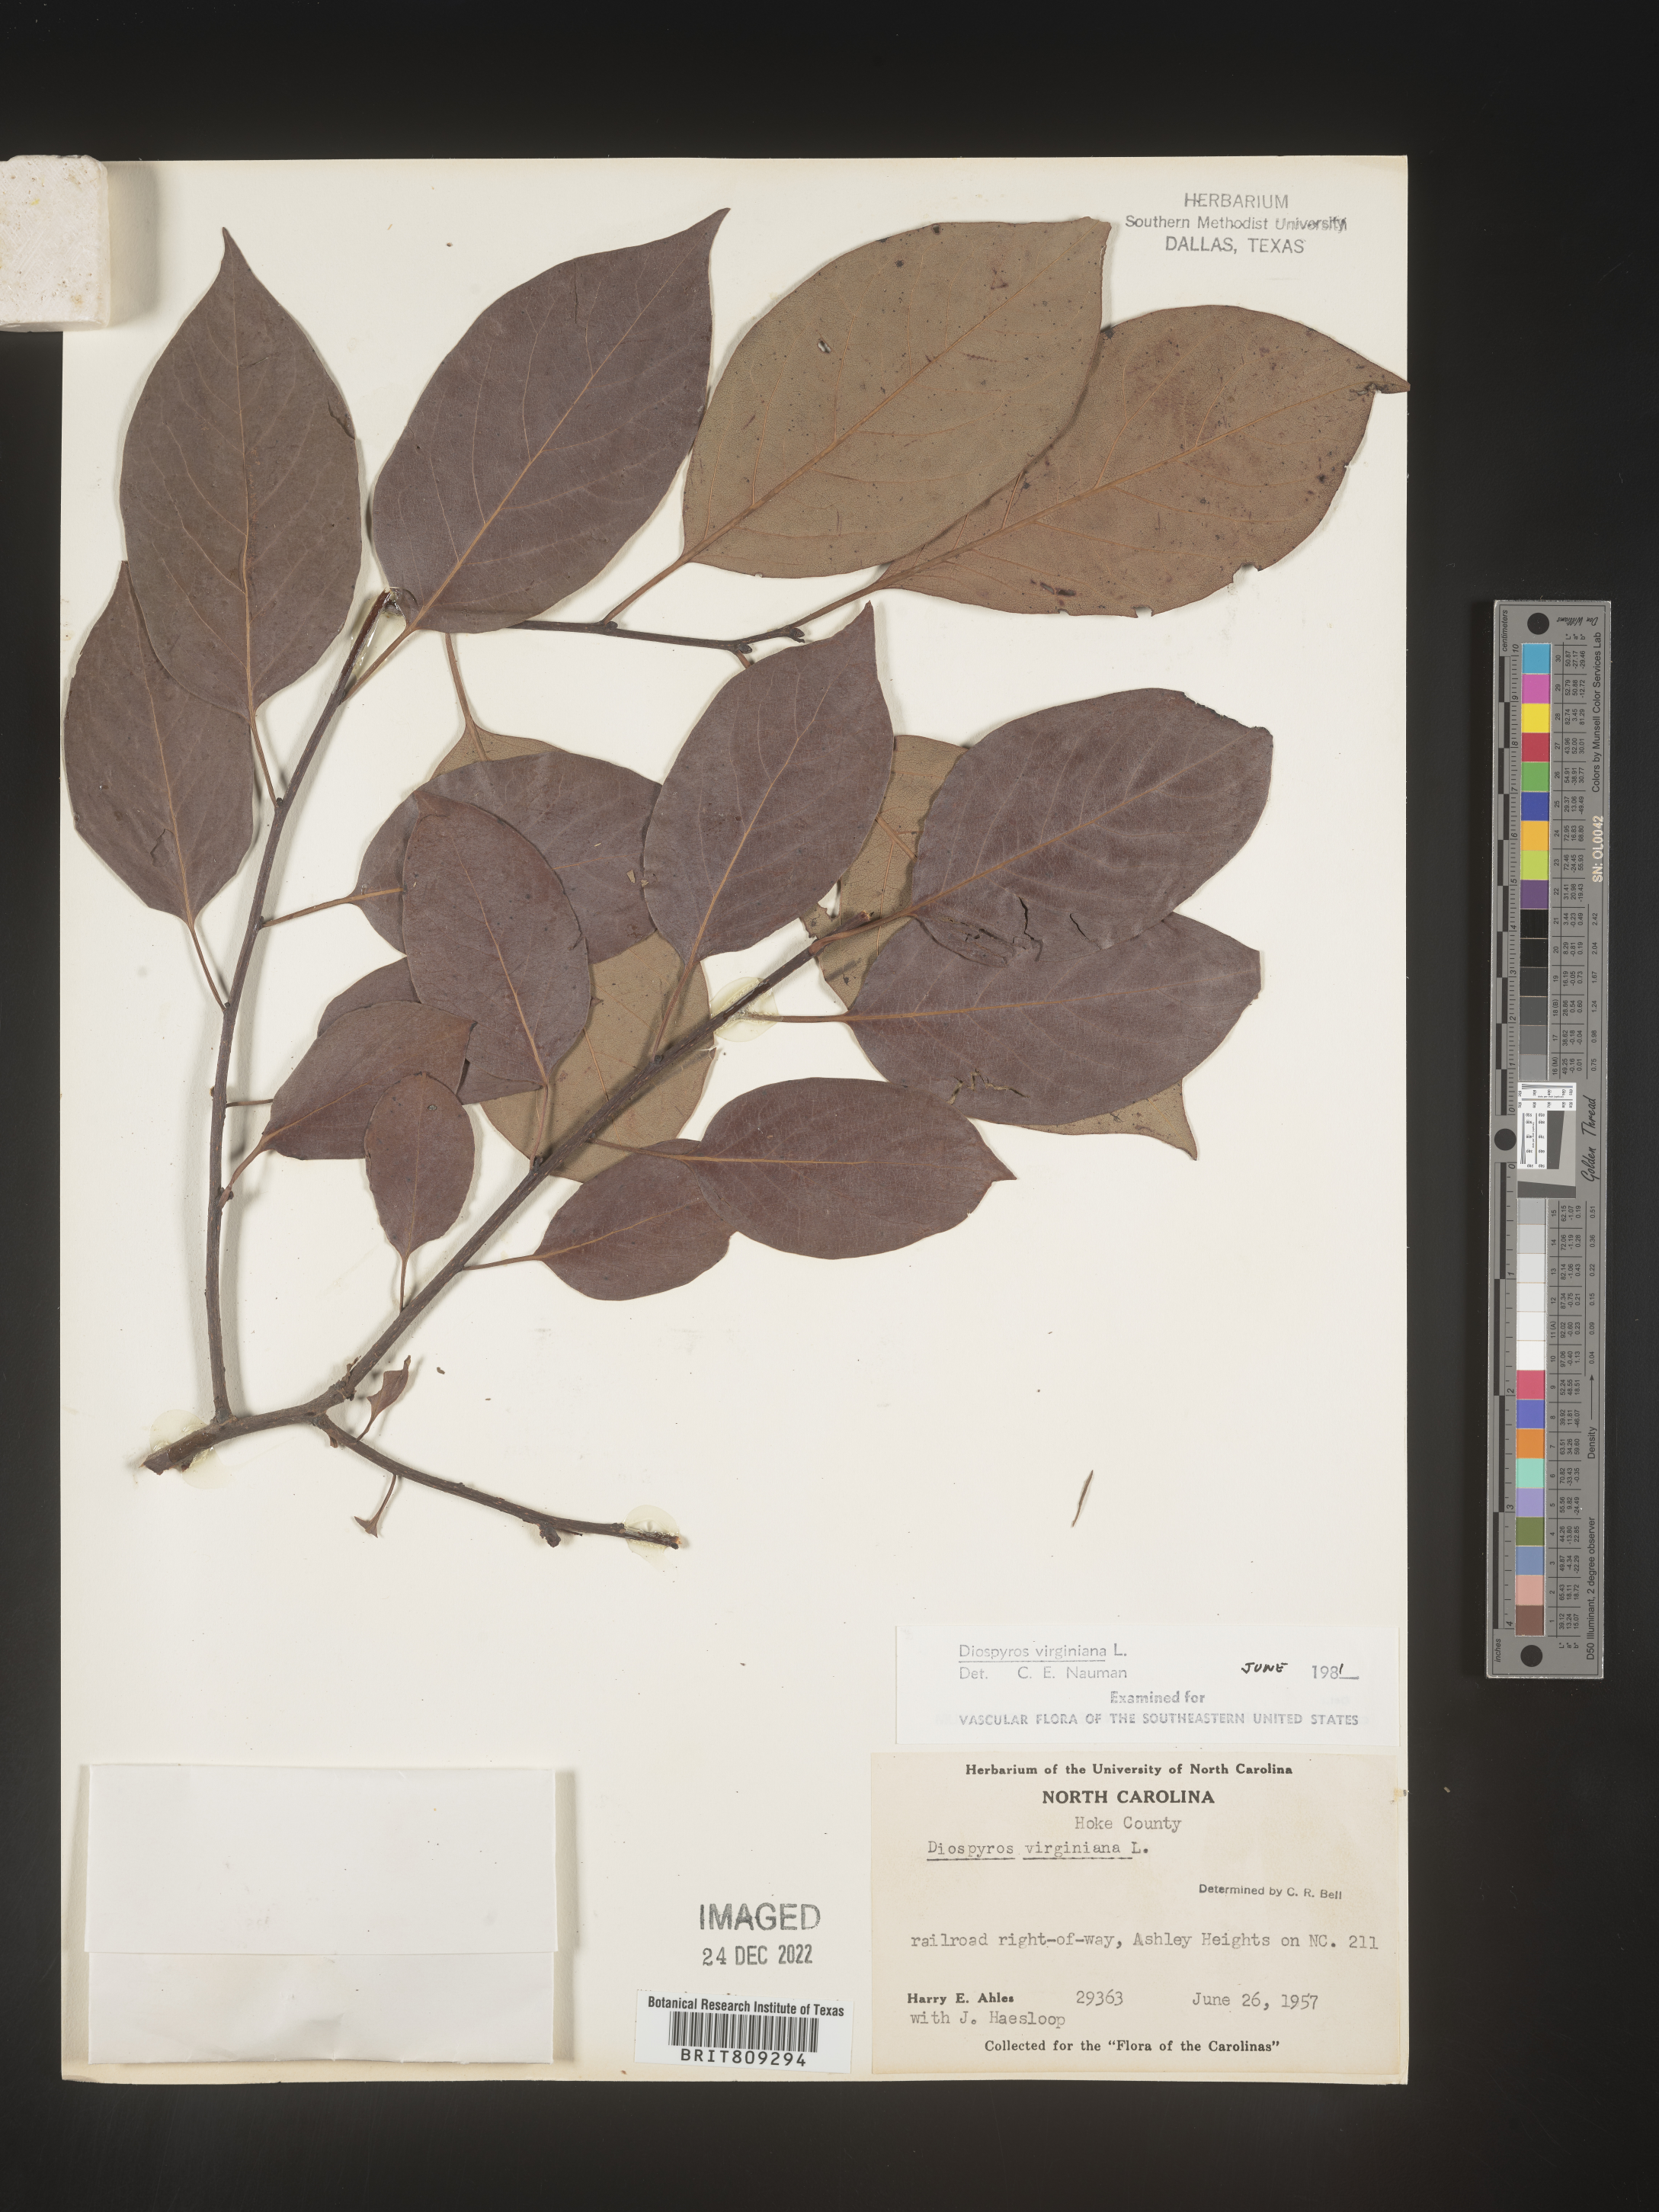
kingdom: Plantae
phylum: Tracheophyta
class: Magnoliopsida
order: Ericales
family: Ebenaceae
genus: Diospyros
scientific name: Diospyros virginiana
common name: Persimmon
